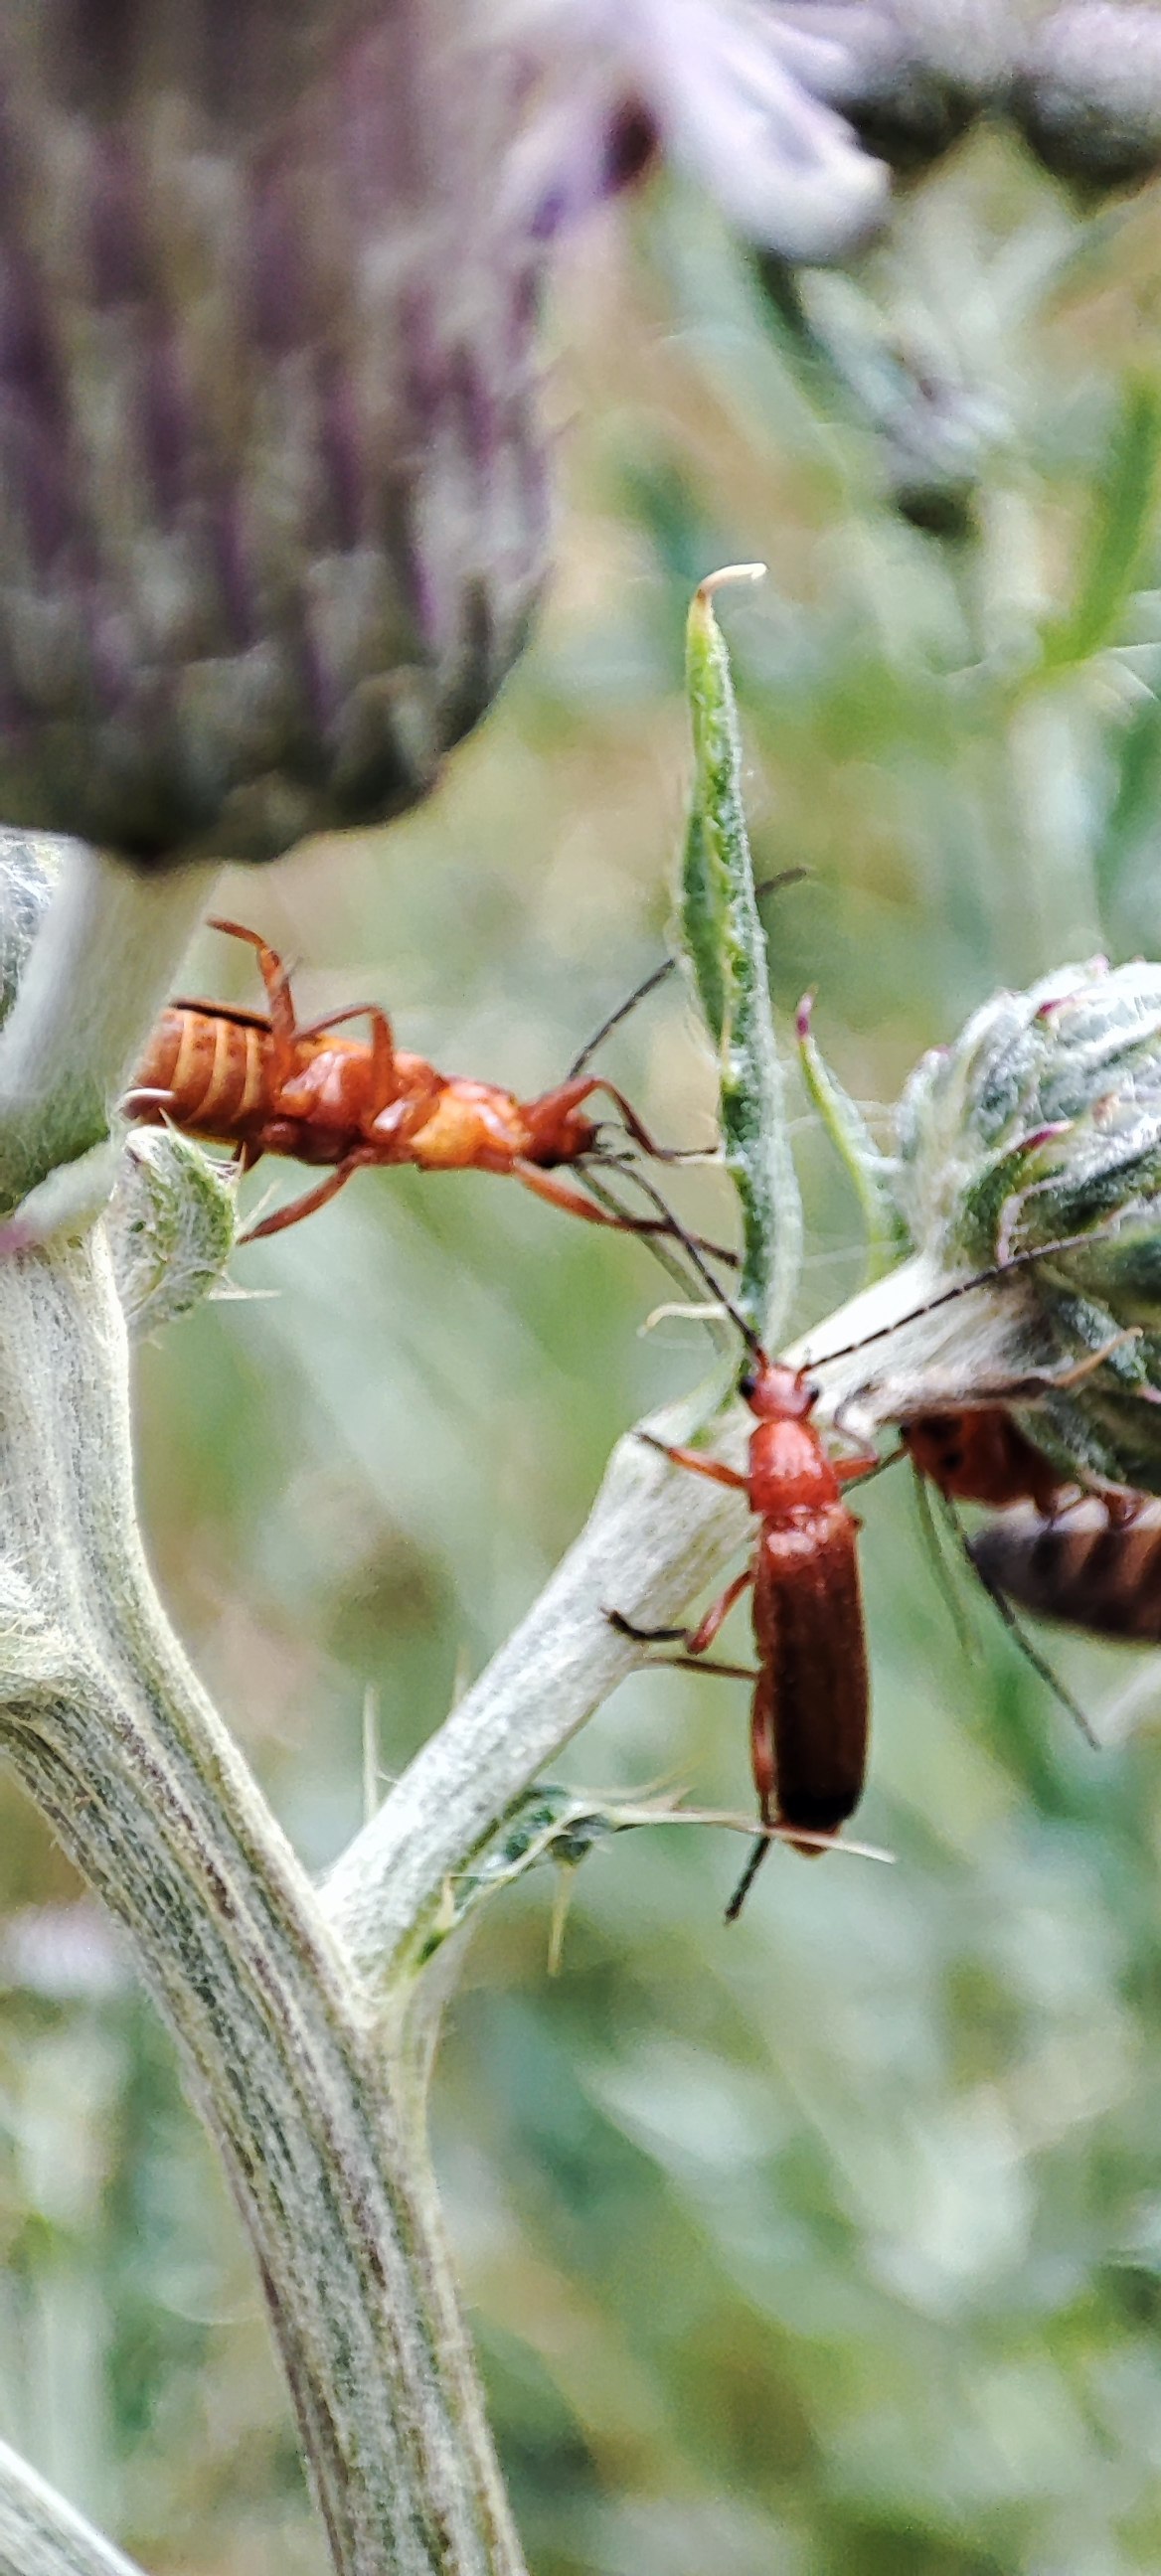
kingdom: Animalia
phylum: Arthropoda
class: Insecta
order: Coleoptera
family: Cantharidae
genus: Rhagonycha
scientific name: Rhagonycha fulva
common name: Præstebille
